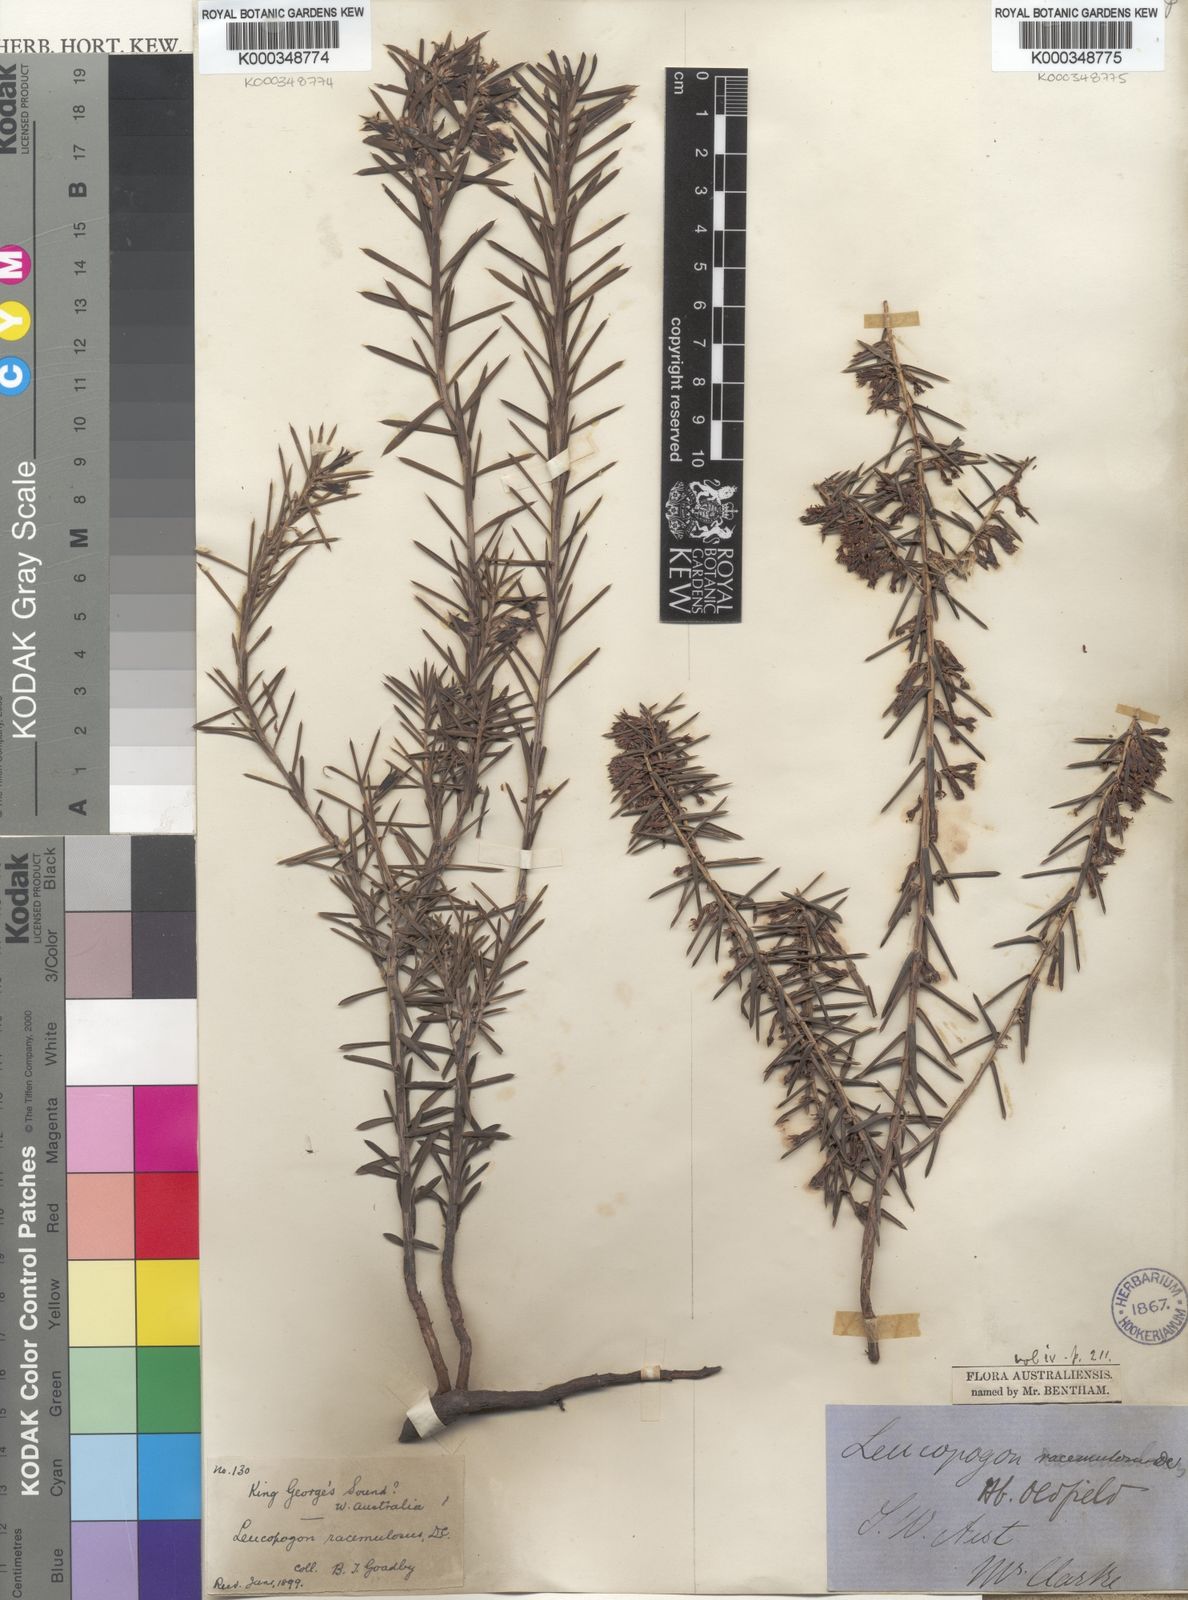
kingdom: Plantae
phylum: Tracheophyta
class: Magnoliopsida
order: Ericales
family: Ericaceae
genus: Styphelia
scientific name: Styphelia racemulosa
